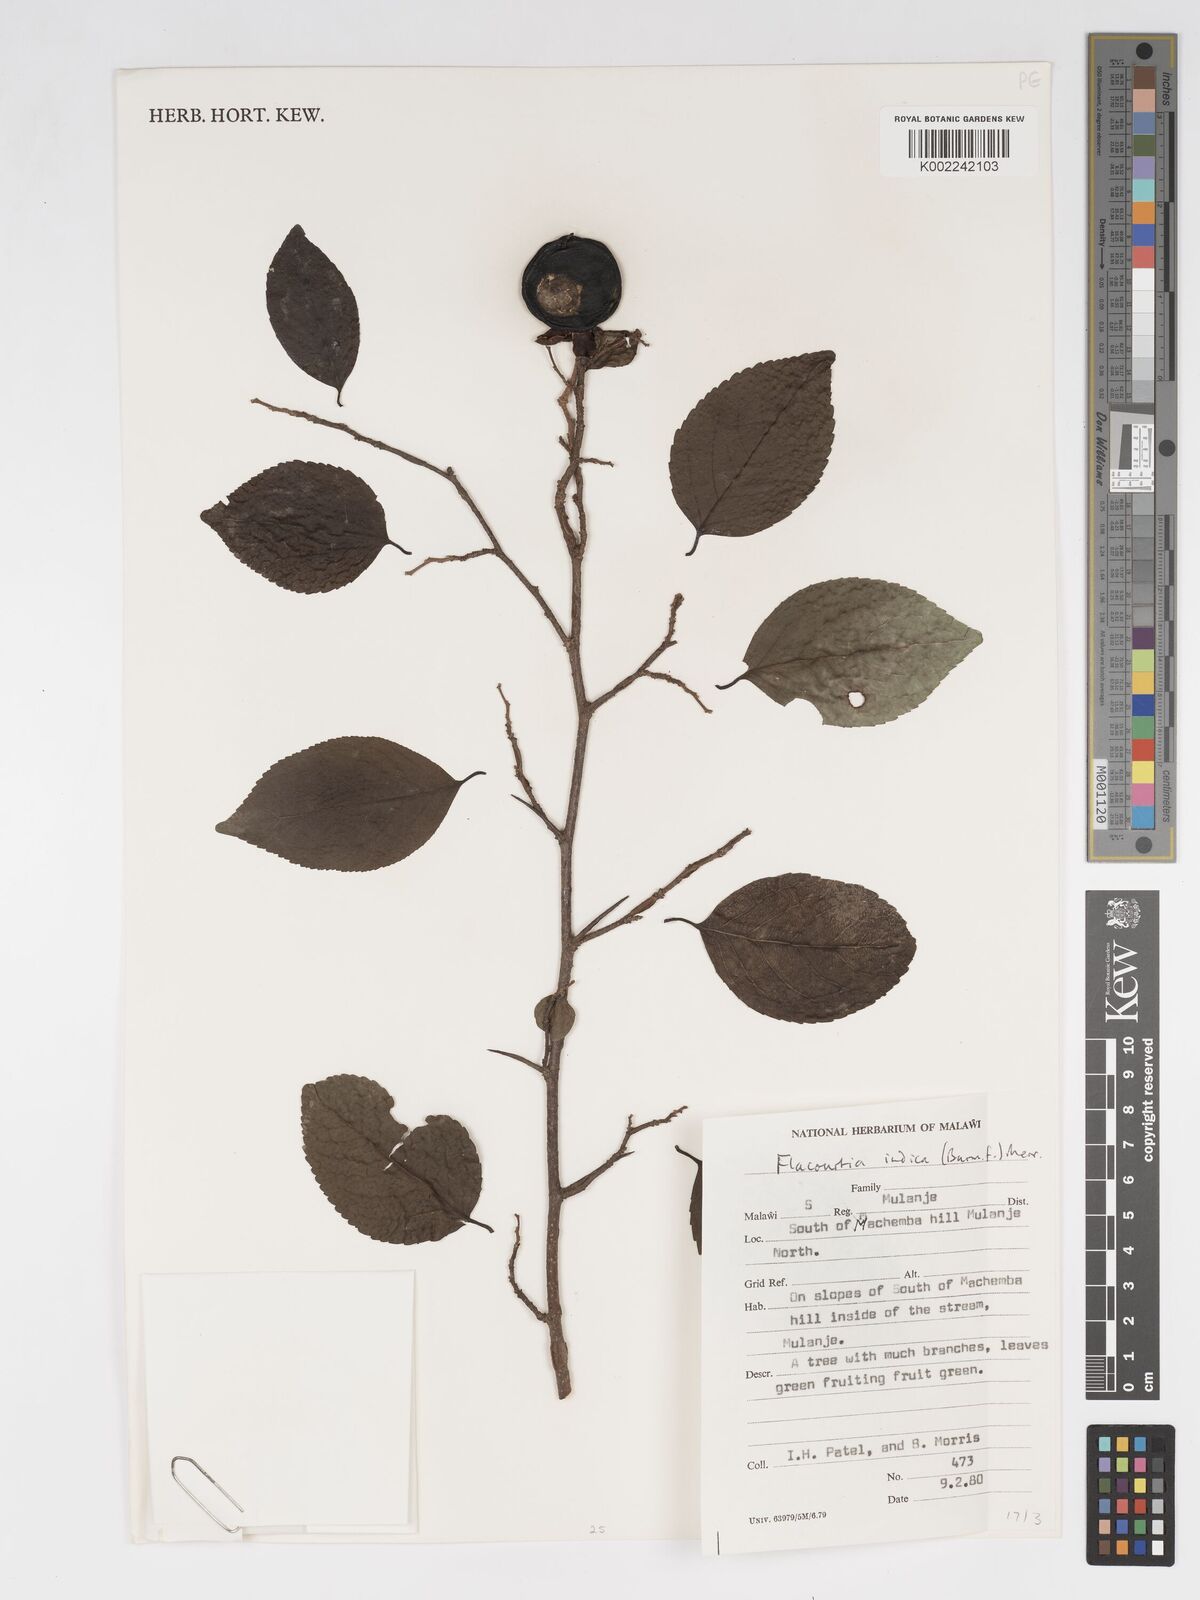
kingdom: Plantae
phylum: Tracheophyta
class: Magnoliopsida
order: Malpighiales
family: Salicaceae
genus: Flacourtia
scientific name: Flacourtia indica
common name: Governor's plum
